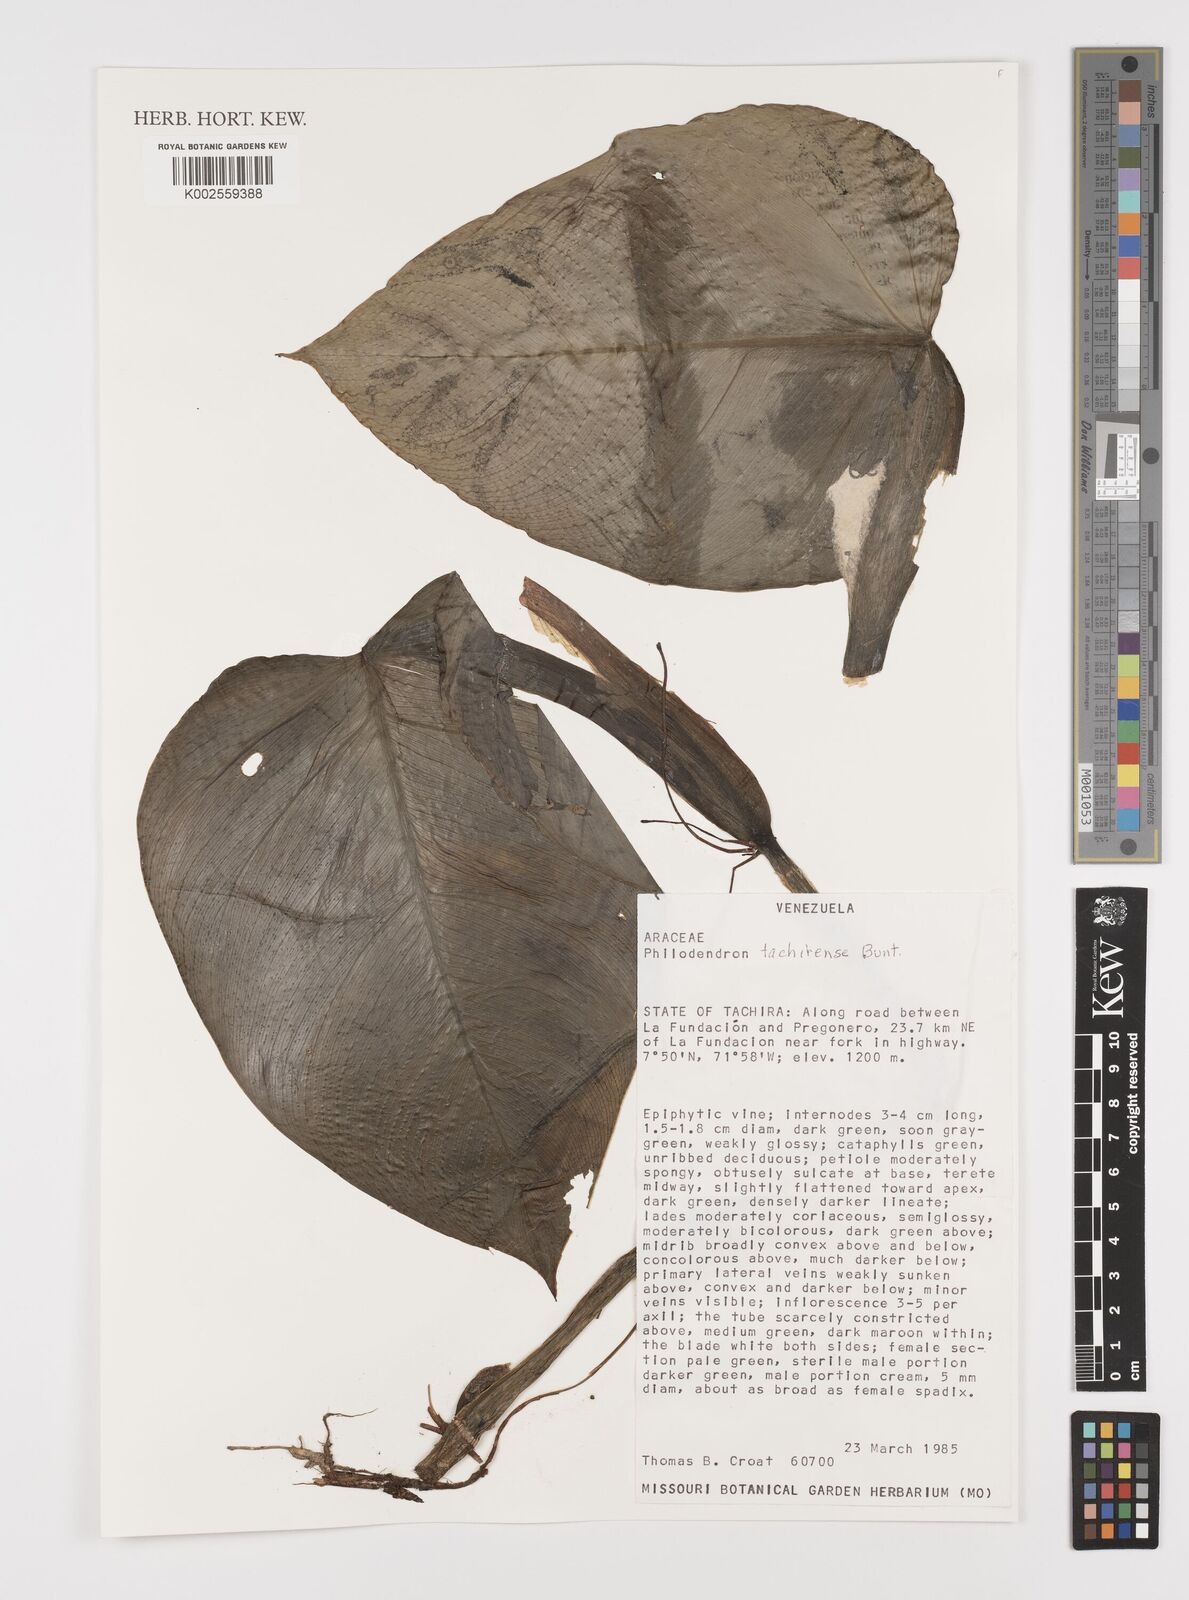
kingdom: Plantae
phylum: Tracheophyta
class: Liliopsida
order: Alismatales
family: Araceae
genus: Philodendron
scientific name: Philodendron tachirense
